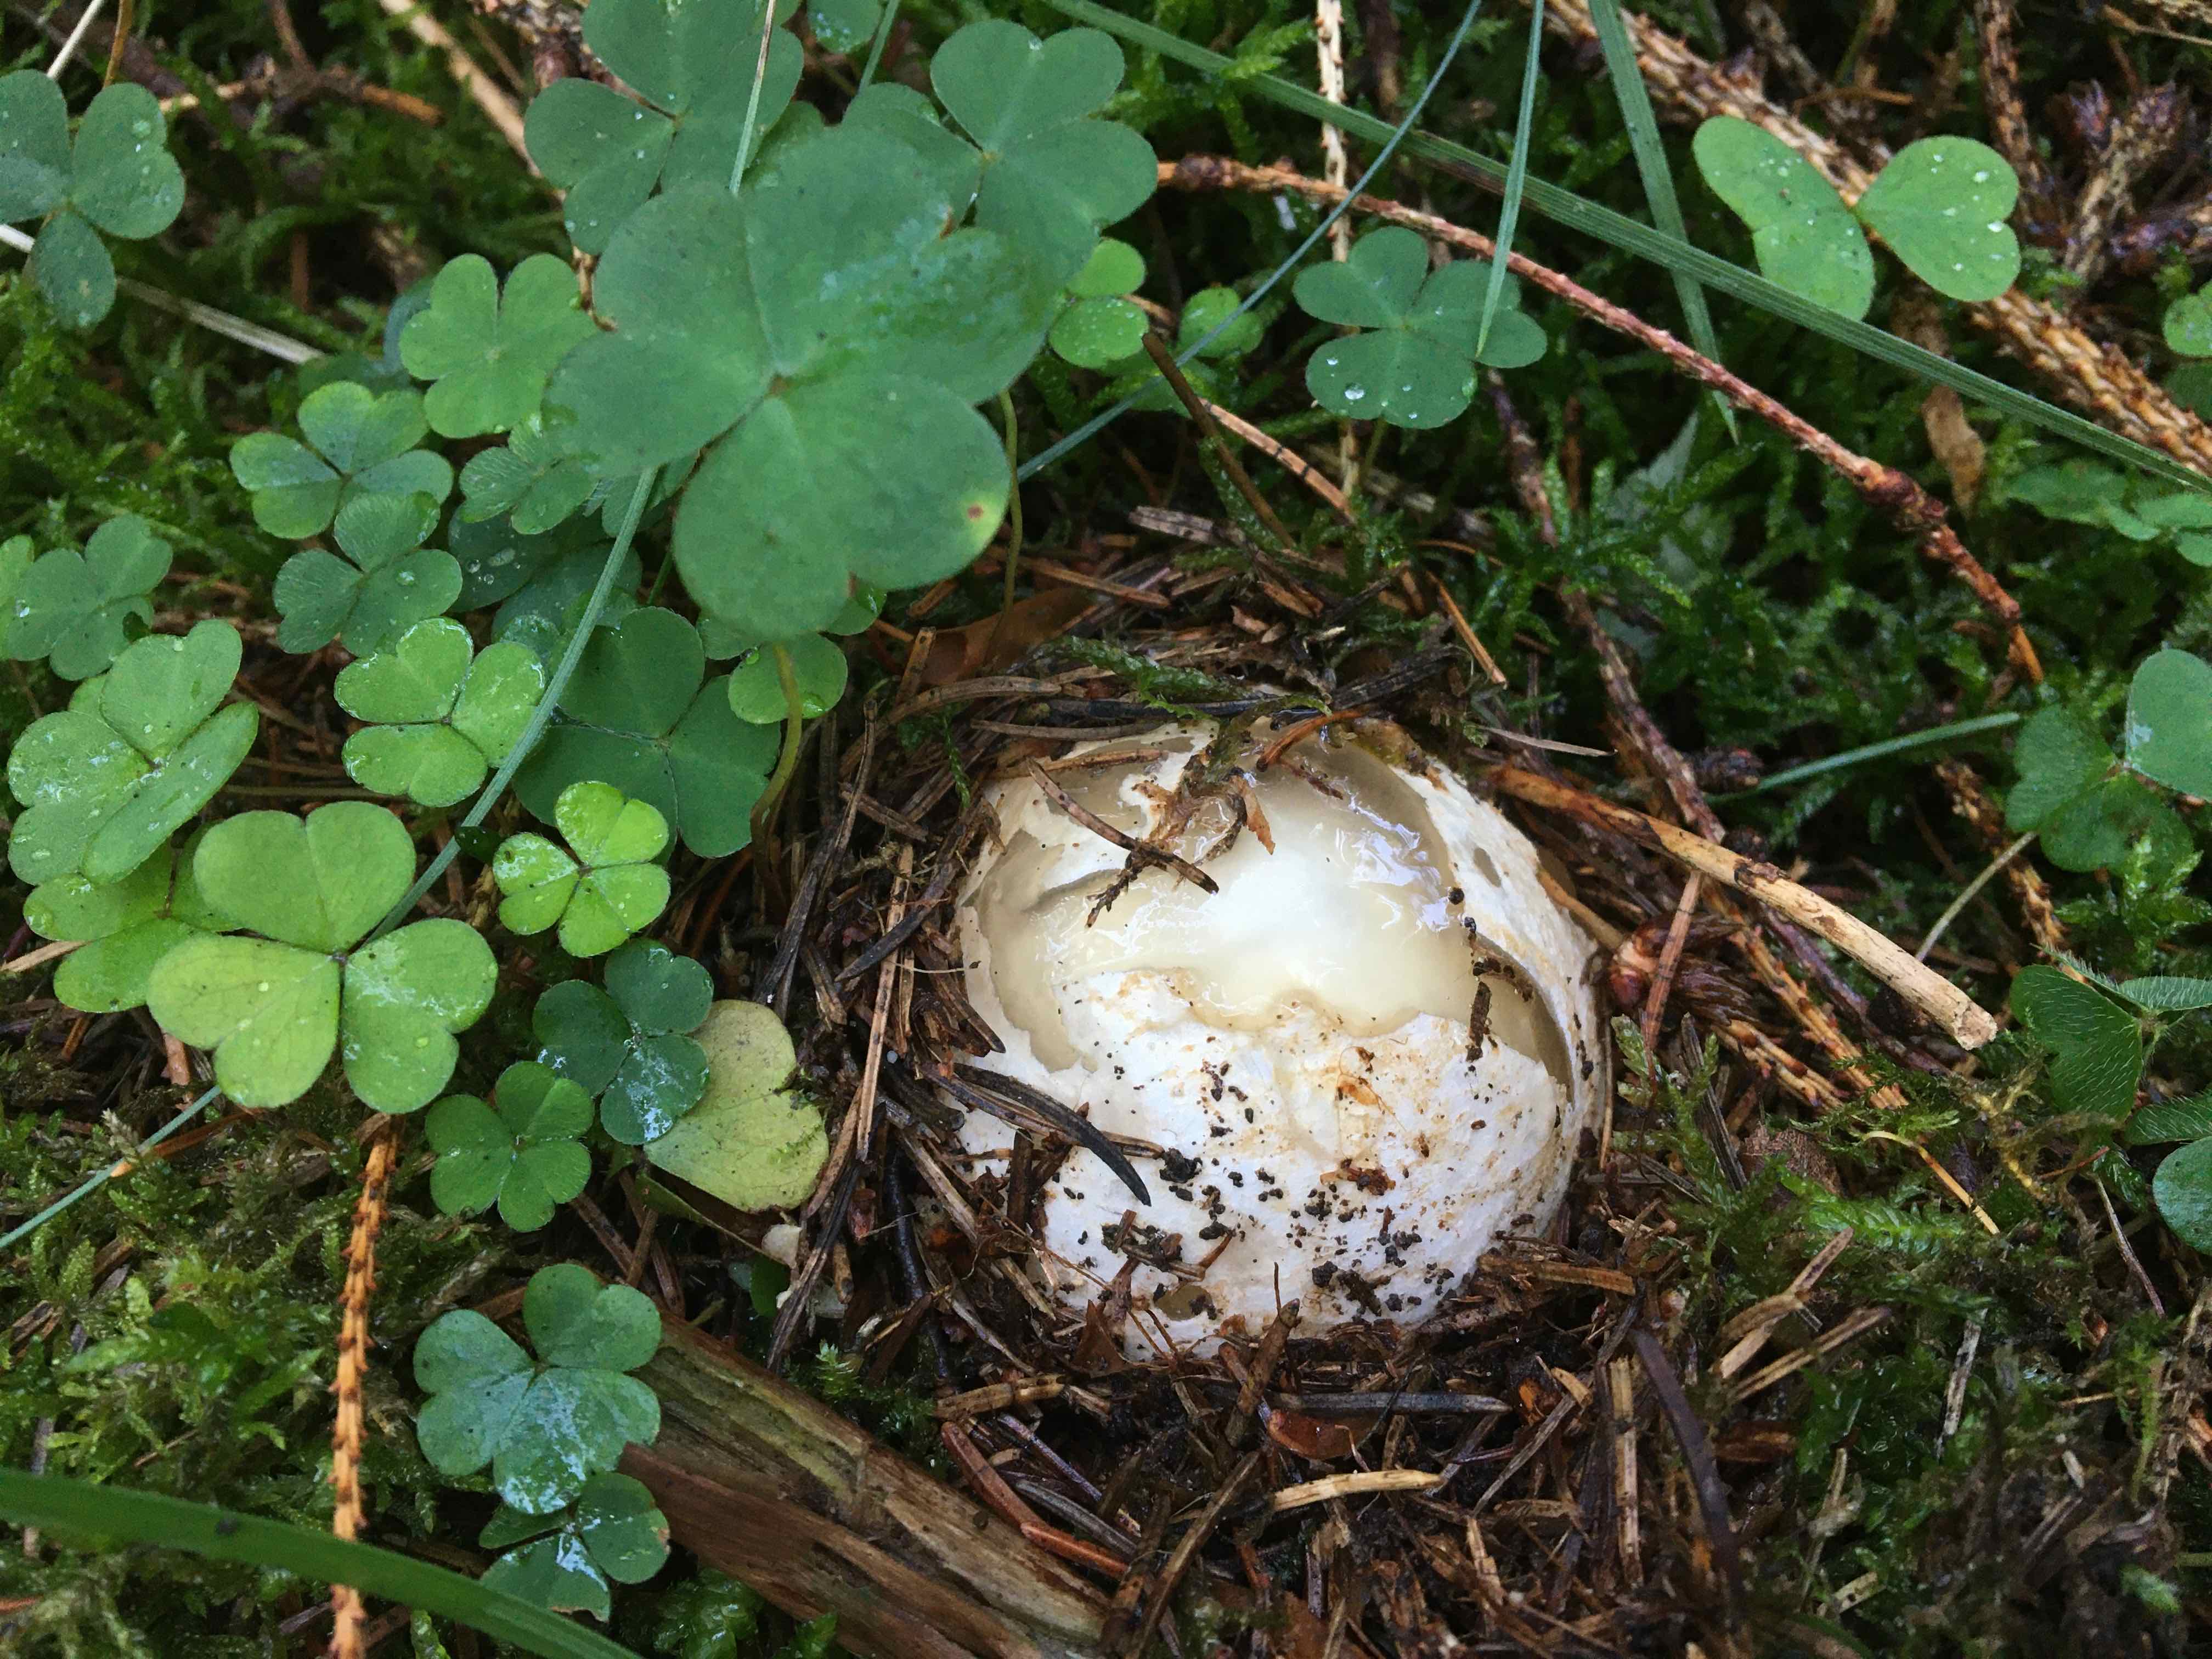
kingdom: Fungi
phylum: Basidiomycota
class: Agaricomycetes
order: Phallales
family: Phallaceae
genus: Phallus
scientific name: Phallus impudicus
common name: almindelig stinksvamp
